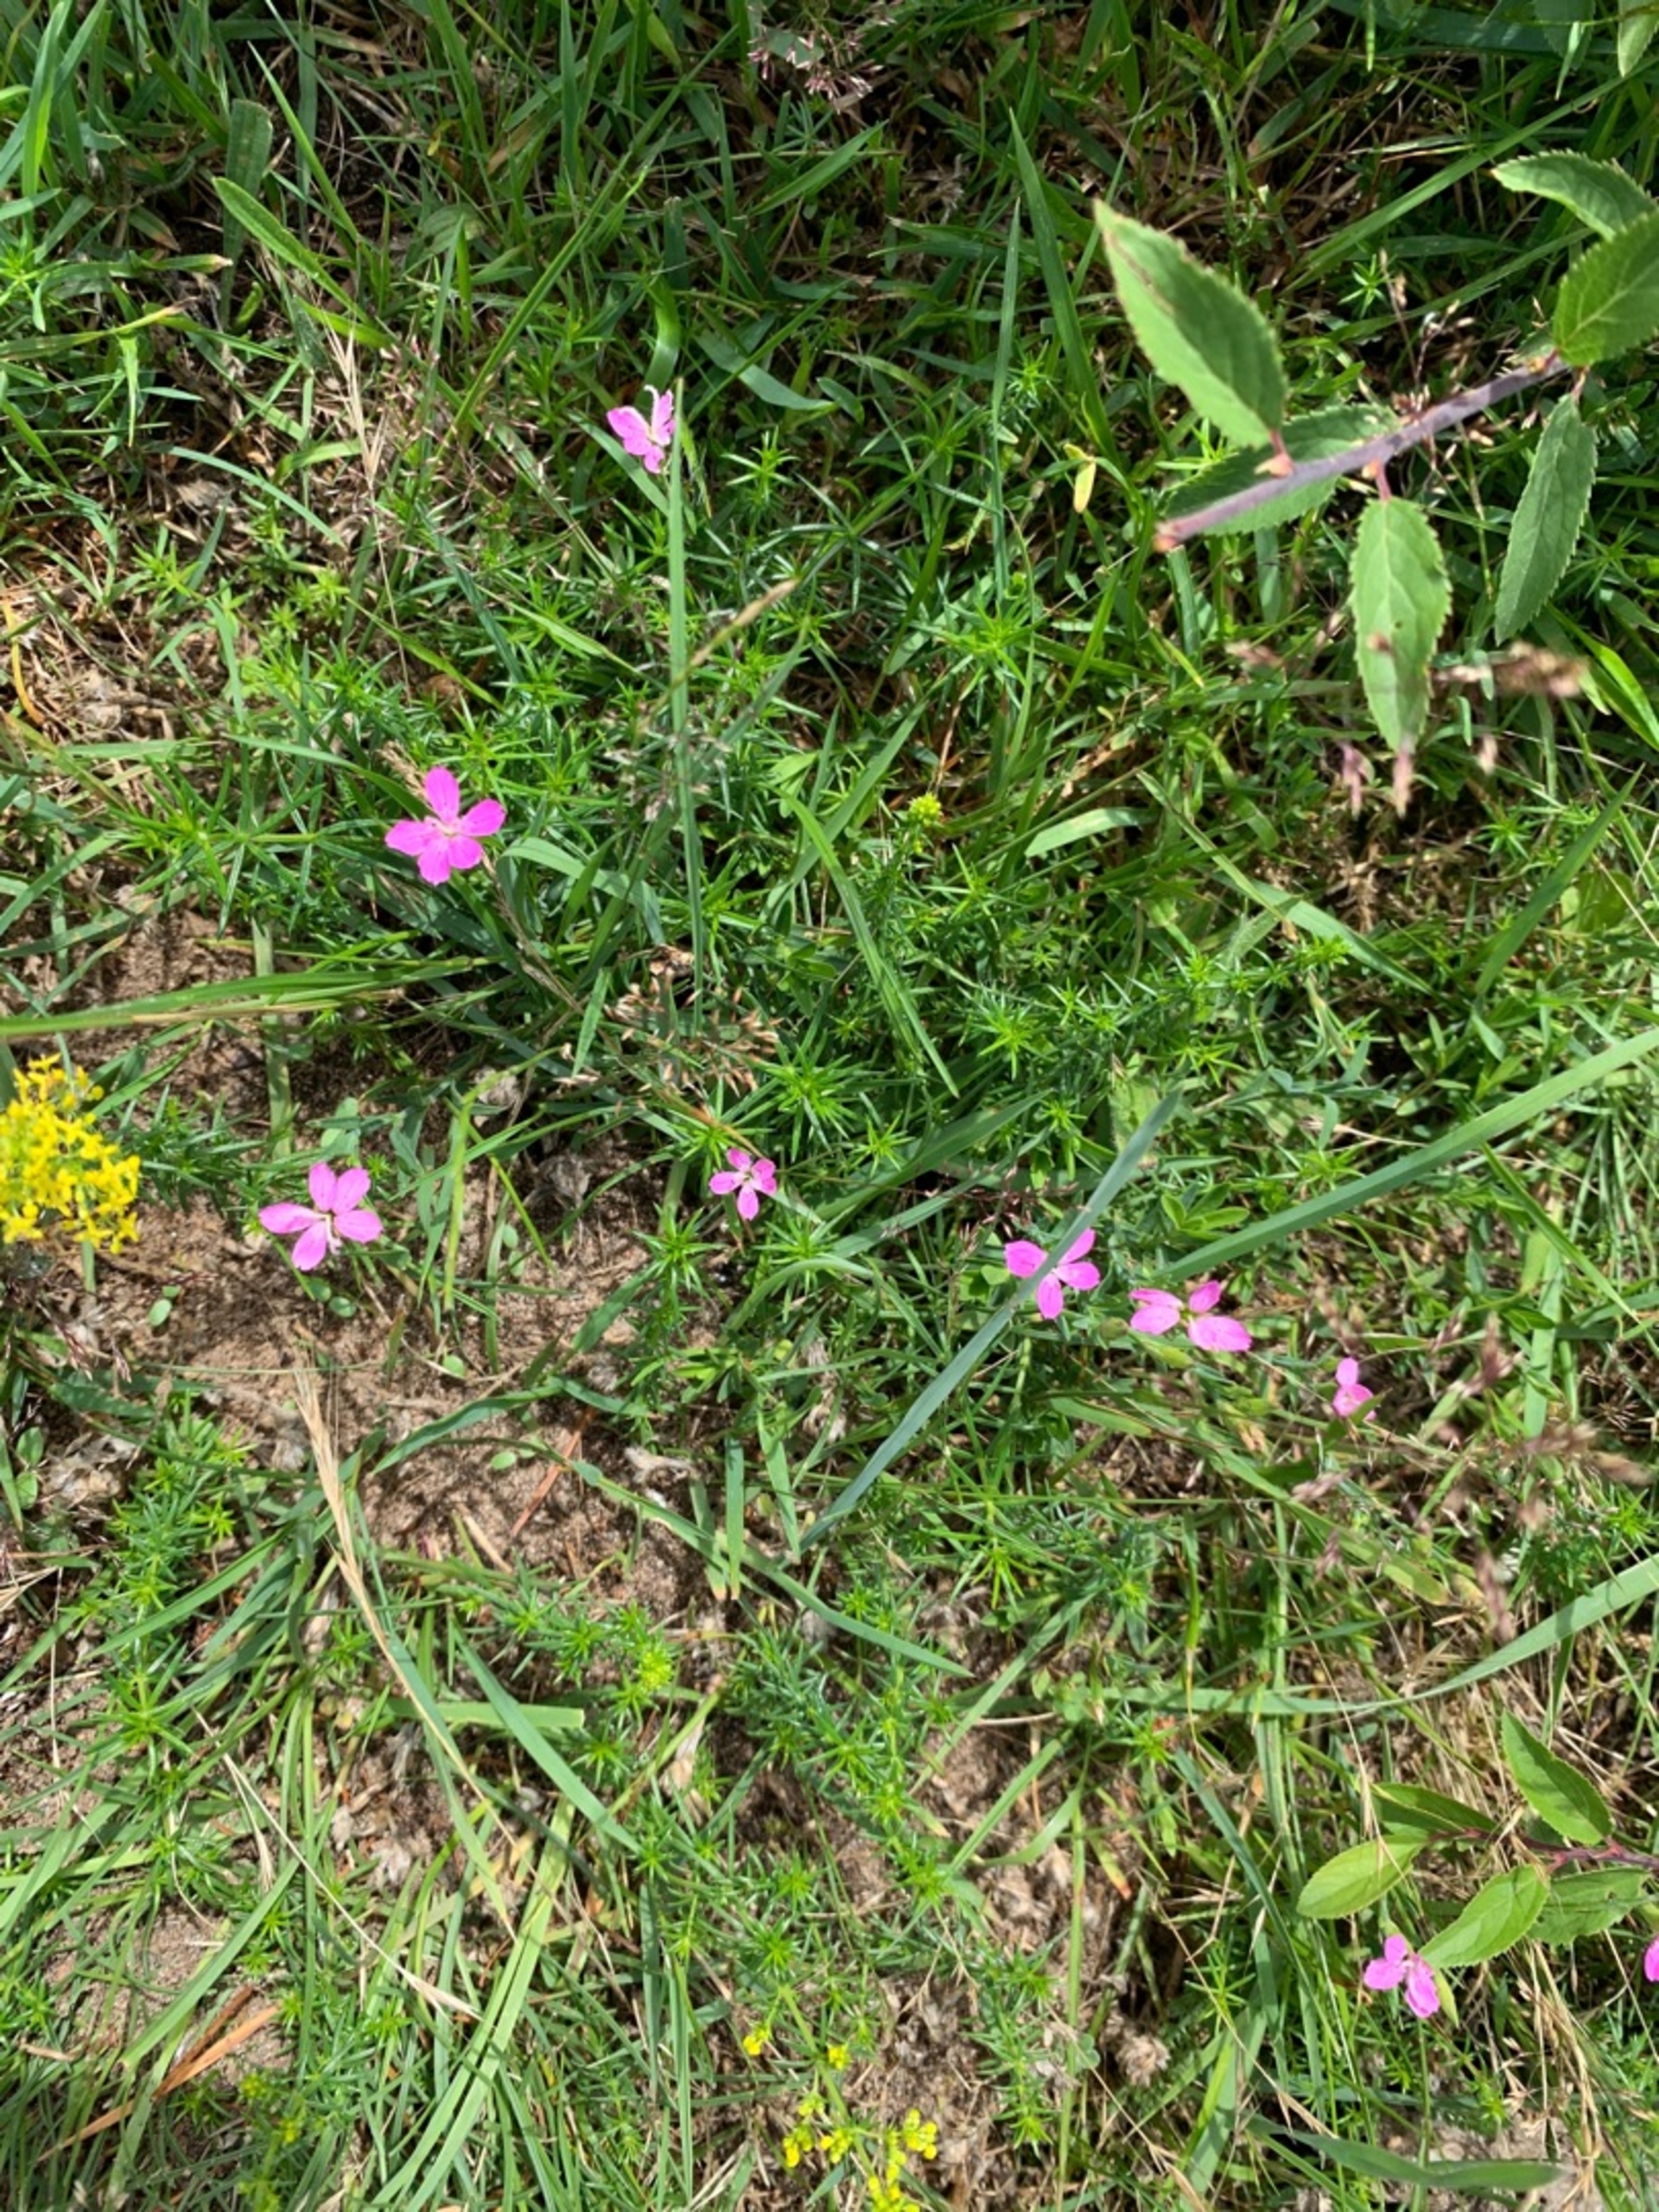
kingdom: Plantae
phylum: Tracheophyta
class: Magnoliopsida
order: Caryophyllales
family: Caryophyllaceae
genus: Dianthus
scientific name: Dianthus deltoides
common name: Bakke-nellike
